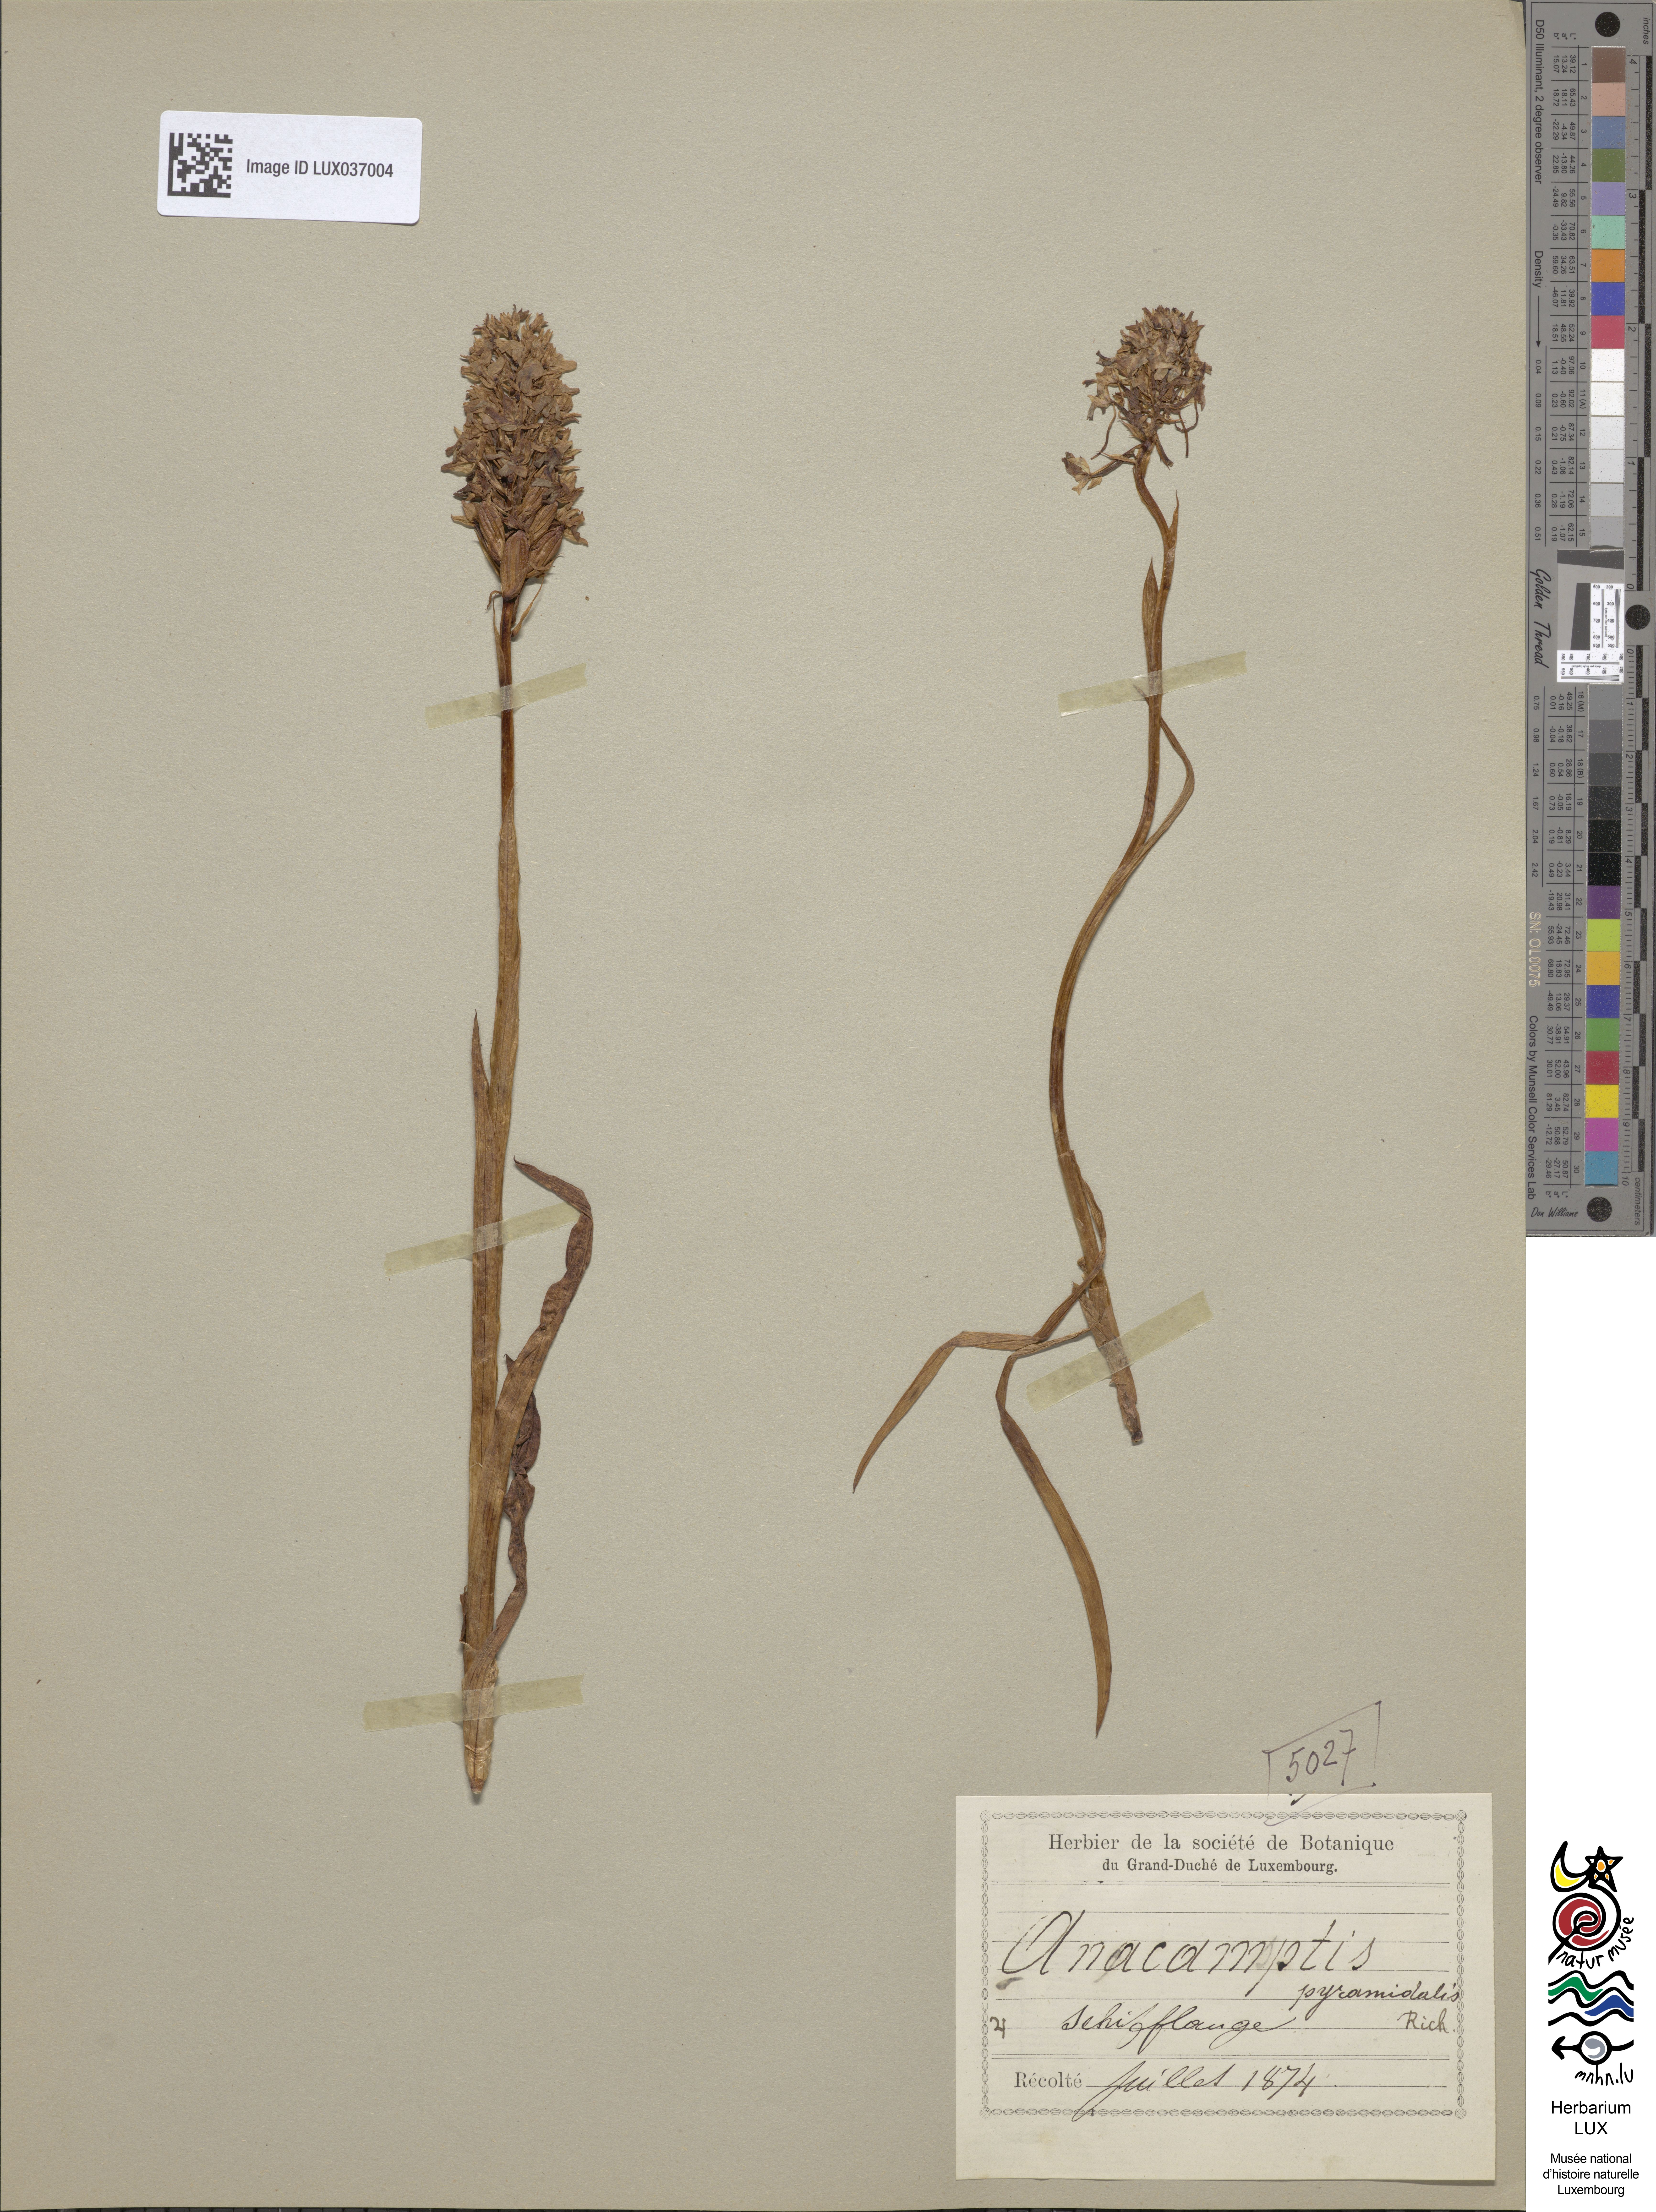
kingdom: Plantae
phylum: Tracheophyta
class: Liliopsida
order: Asparagales
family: Orchidaceae
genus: Anacamptis
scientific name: Anacamptis pyramidalis
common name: Pyramidal orchid
